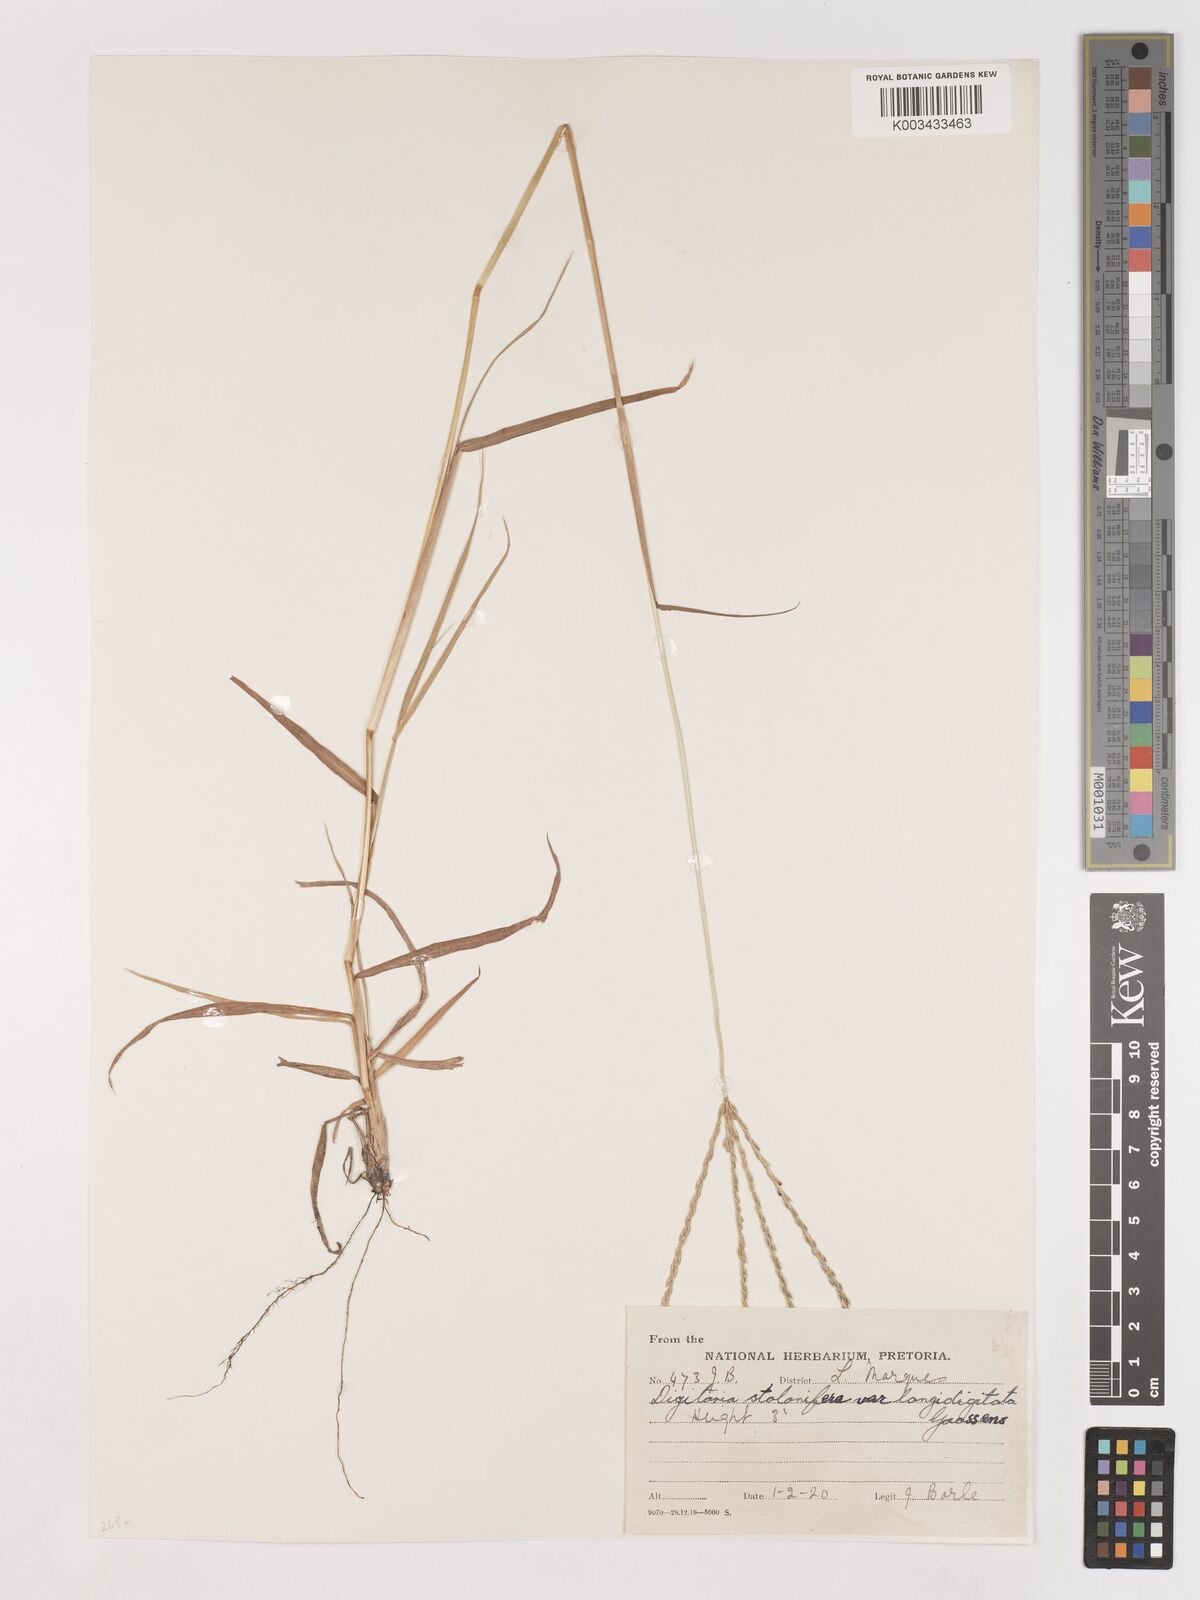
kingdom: Plantae
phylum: Tracheophyta
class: Liliopsida
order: Poales
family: Poaceae
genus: Digitaria
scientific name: Digitaria eriantha
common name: Digitgrass
